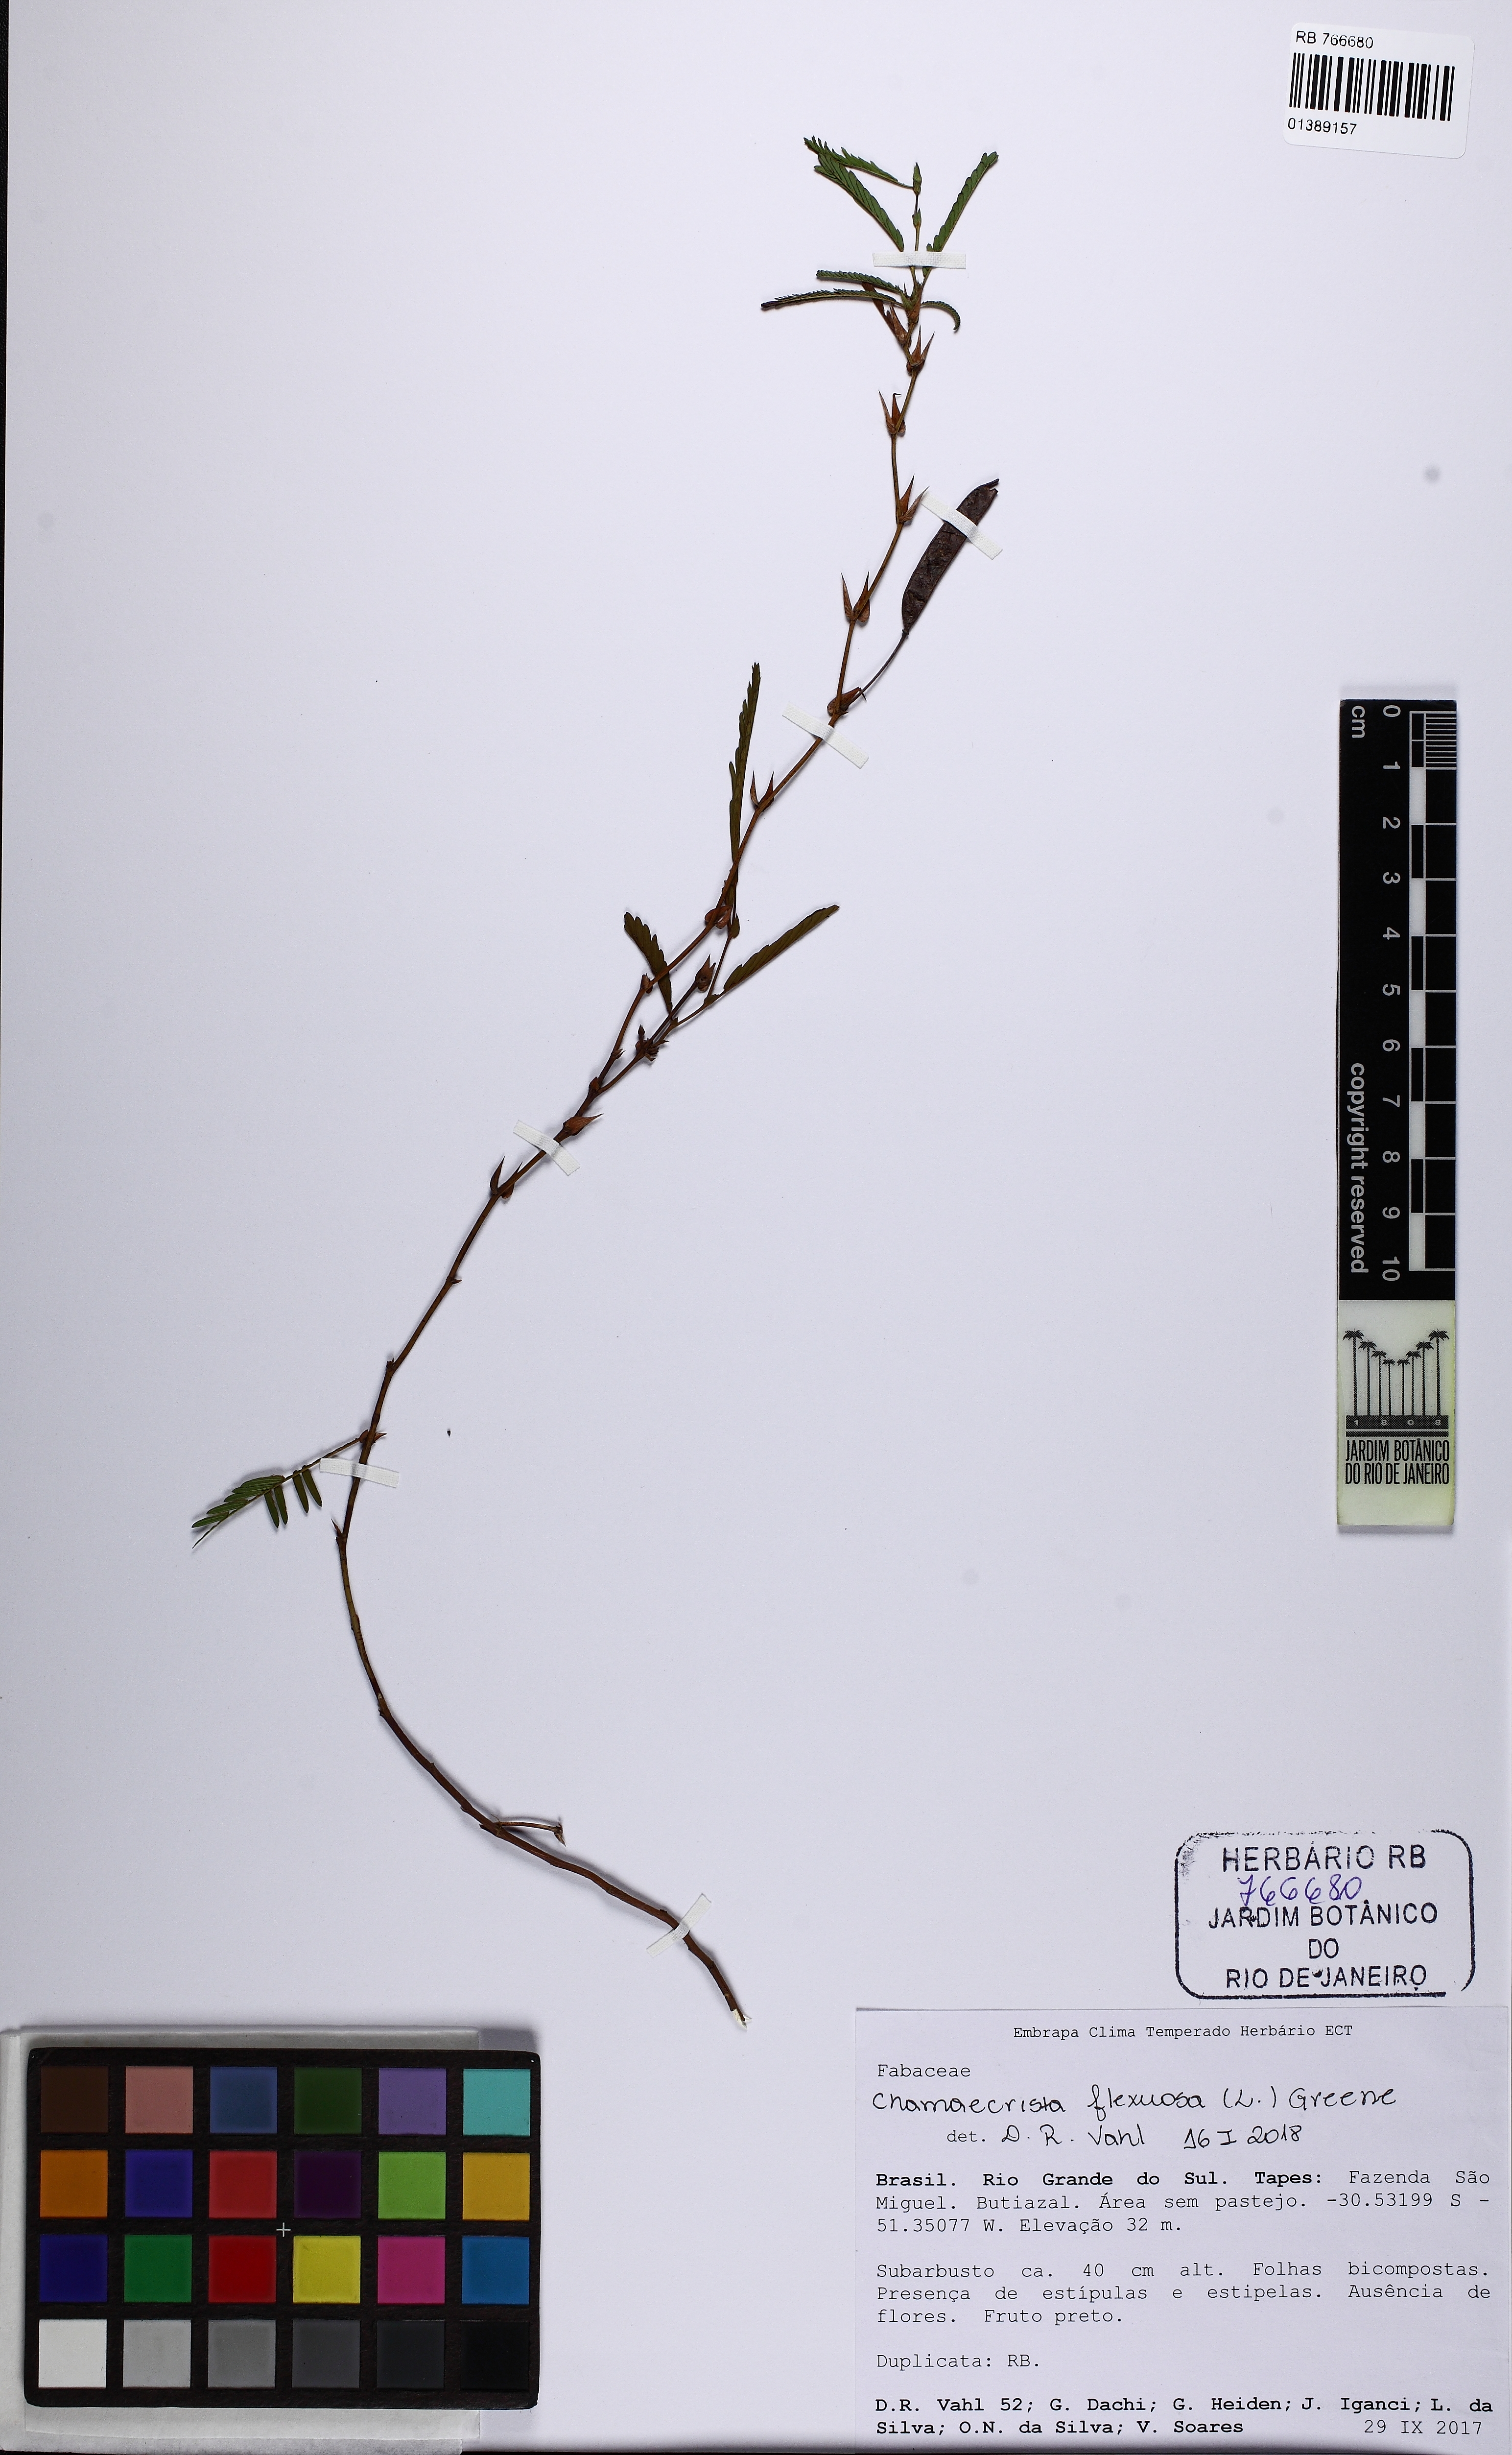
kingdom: Plantae
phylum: Tracheophyta
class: Magnoliopsida
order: Fabales
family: Fabaceae
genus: Chamaecrista
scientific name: Chamaecrista flexuosa
